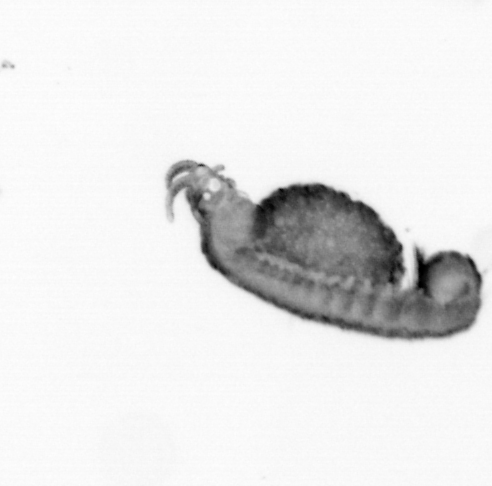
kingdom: Animalia
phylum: Annelida
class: Polychaeta
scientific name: Polychaeta
